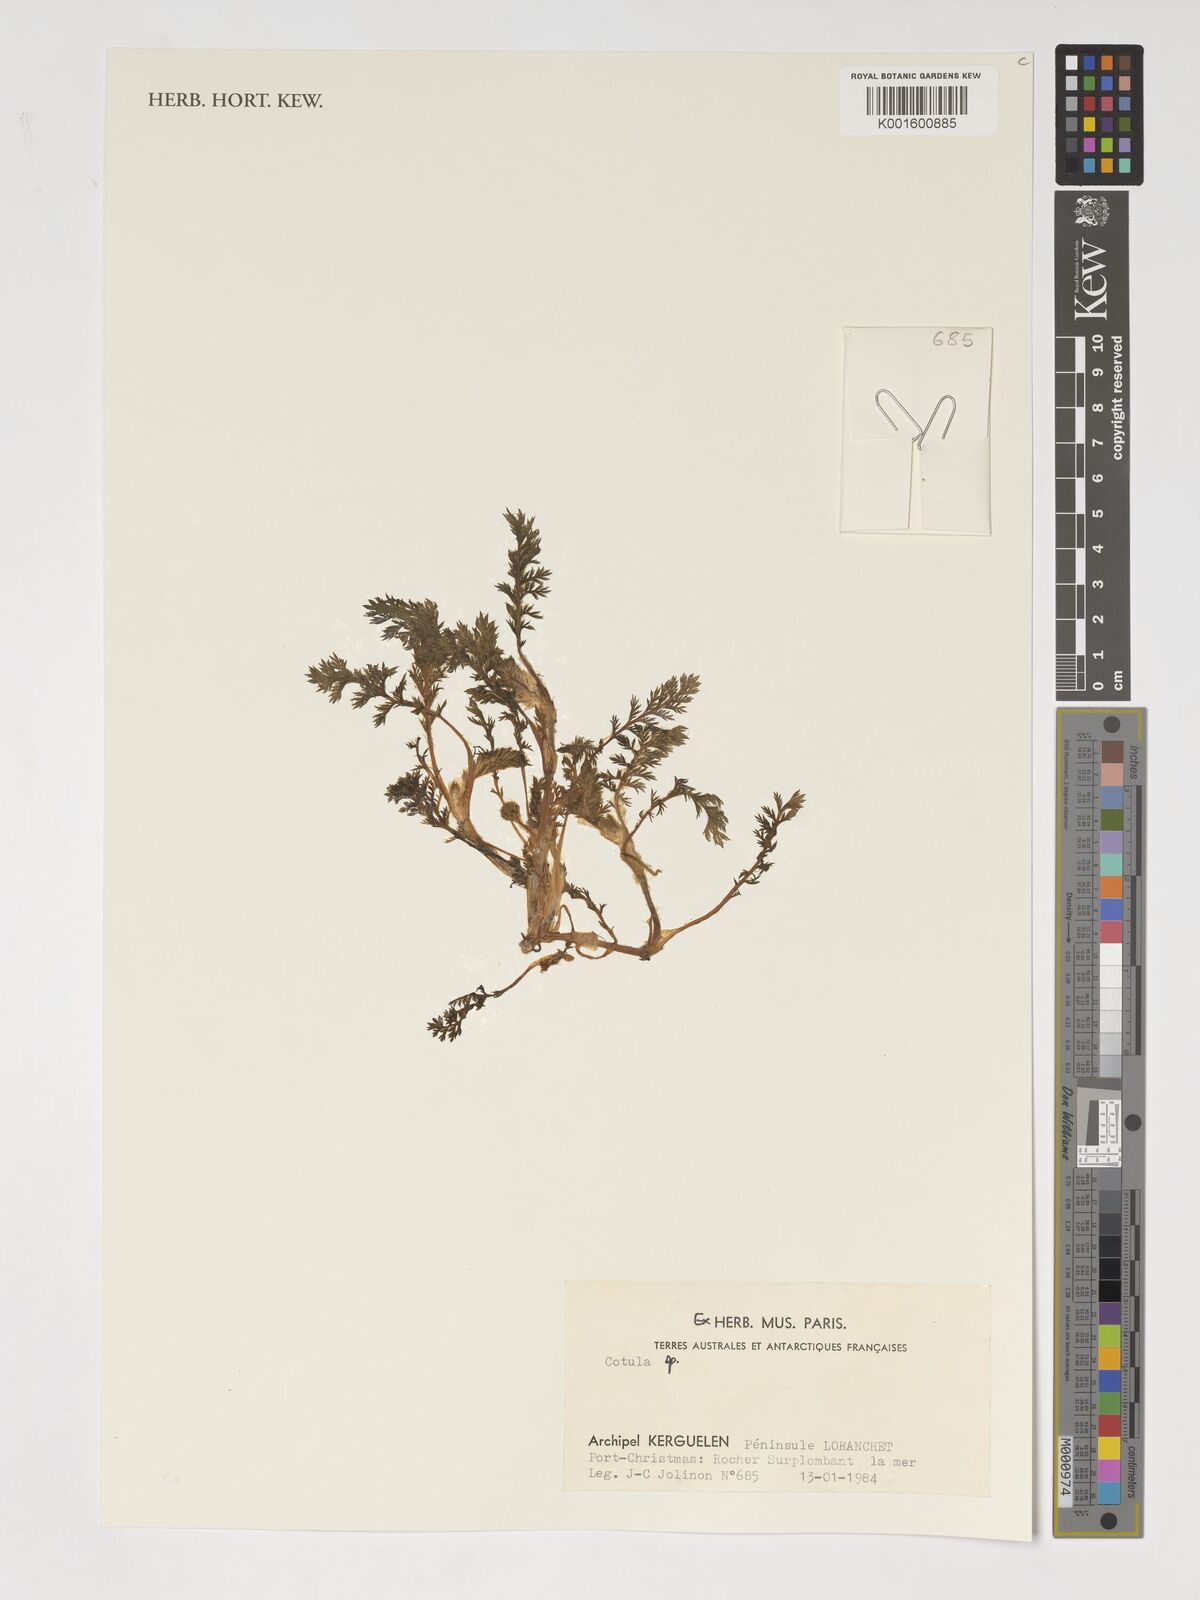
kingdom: Plantae
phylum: Tracheophyta
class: Magnoliopsida
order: Asterales
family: Asteraceae
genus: Cotula
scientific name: Cotula
